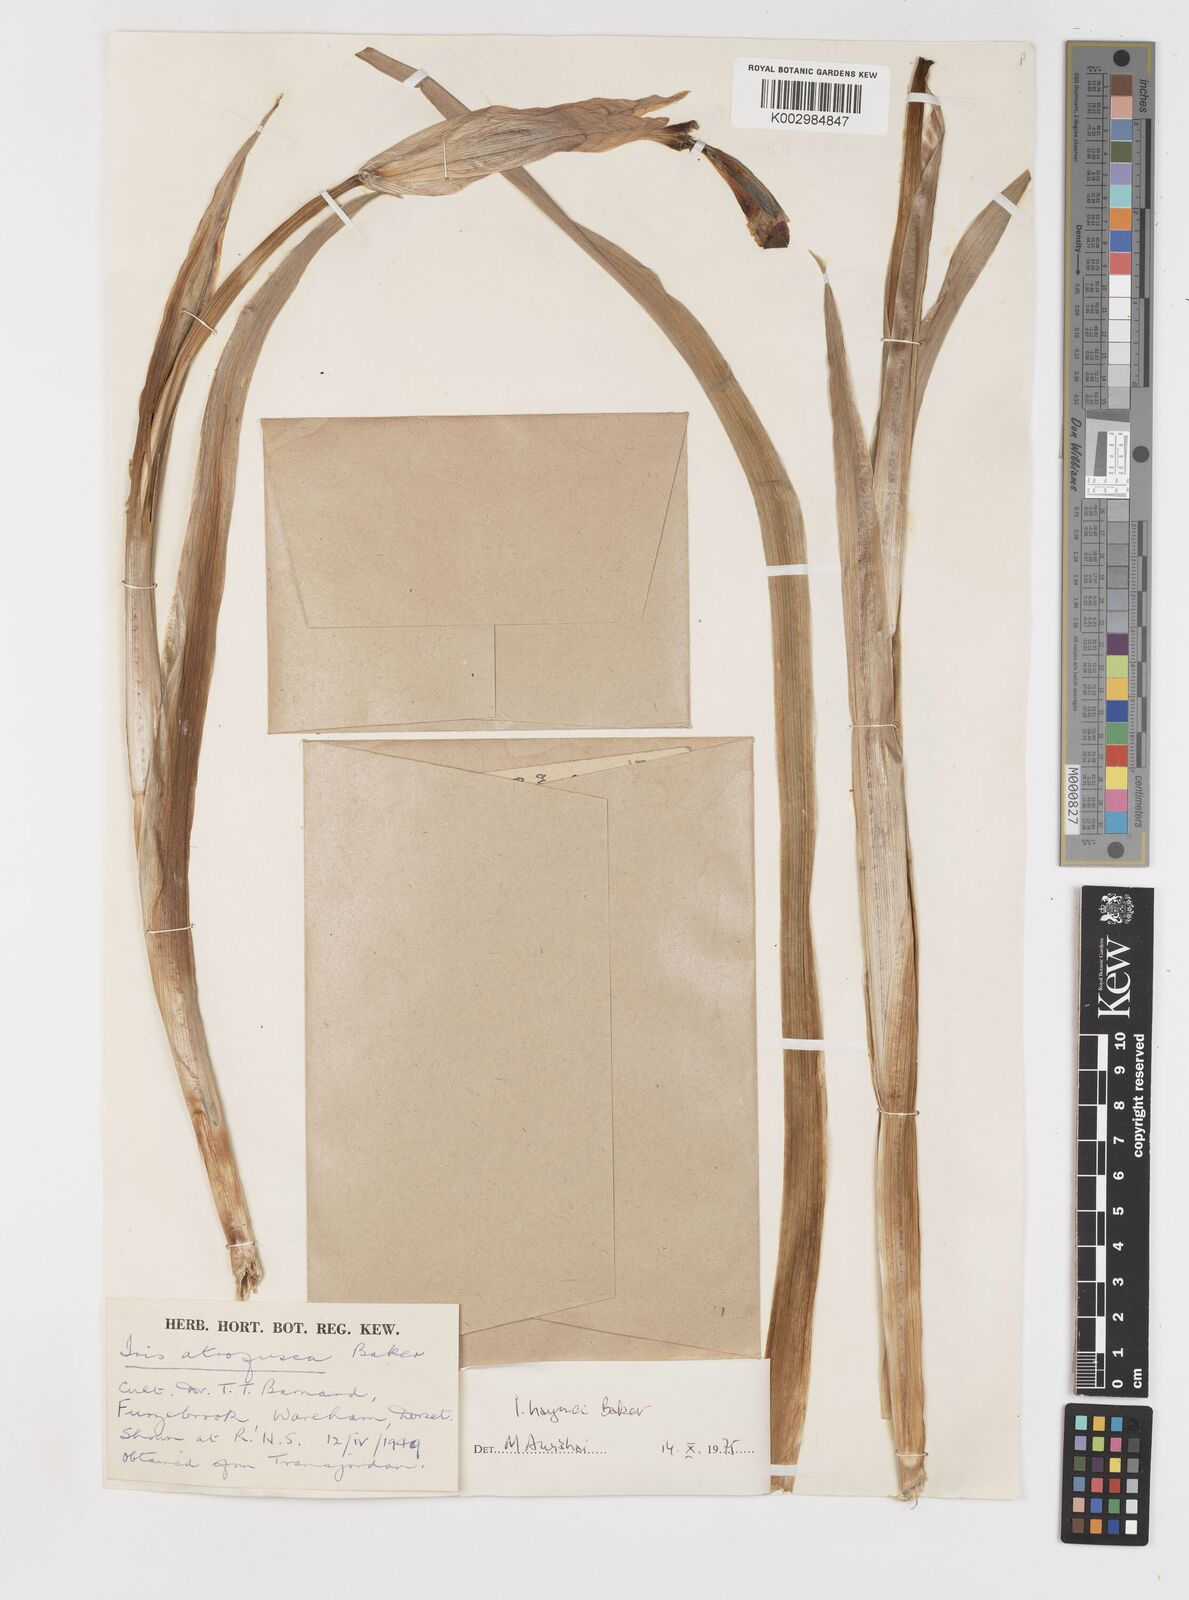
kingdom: Plantae
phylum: Tracheophyta
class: Liliopsida
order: Asparagales
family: Iridaceae
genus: Iris
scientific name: Iris atrofusca
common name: Asshafa iris
